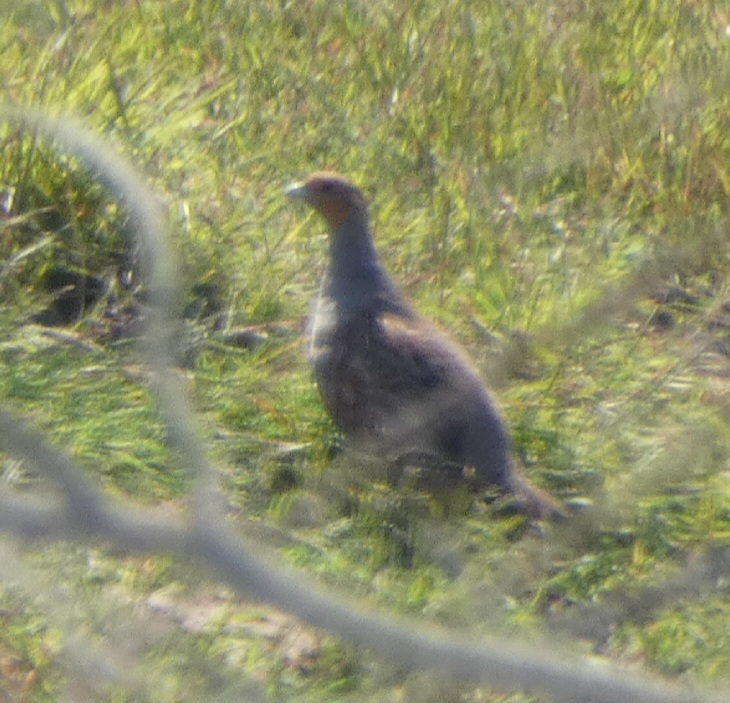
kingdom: Animalia
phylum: Chordata
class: Aves
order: Galliformes
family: Phasianidae
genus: Perdix
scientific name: Perdix perdix
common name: Agerhøne
